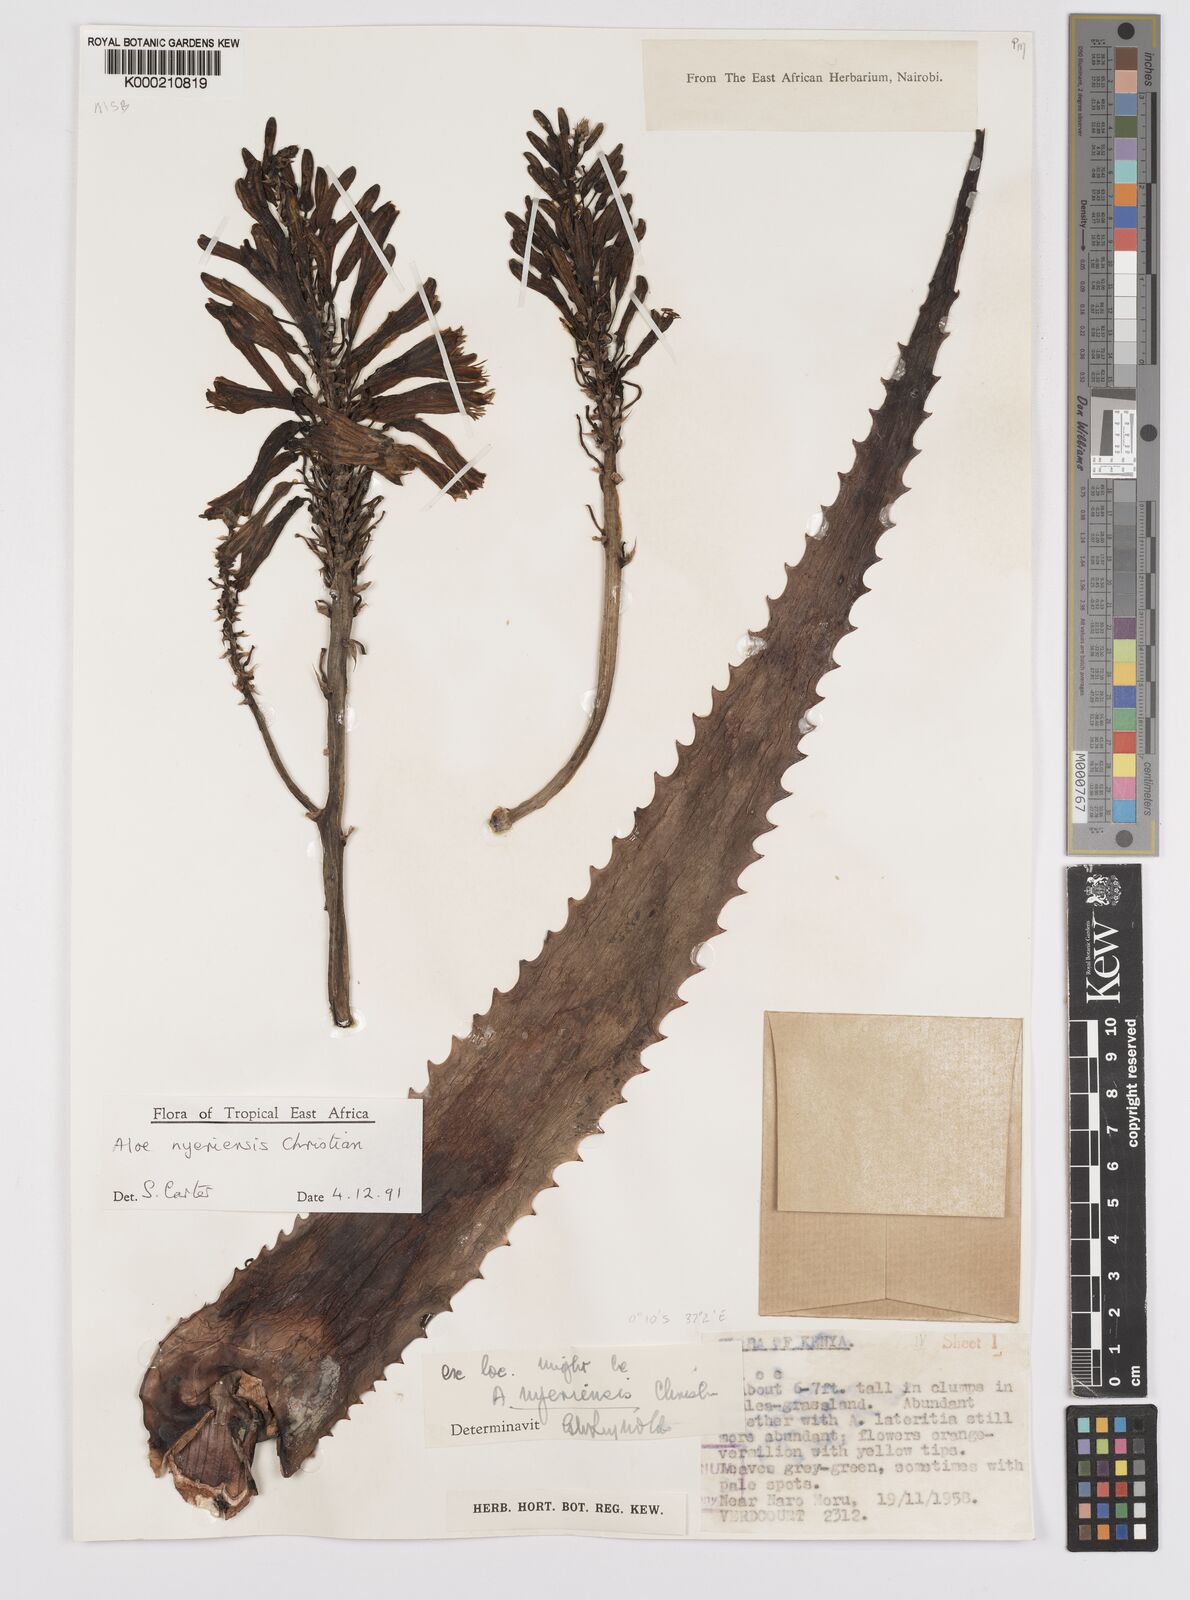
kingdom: Plantae
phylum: Tracheophyta
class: Liliopsida
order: Asparagales
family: Asphodelaceae
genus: Aloe
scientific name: Aloe nyeriensis
